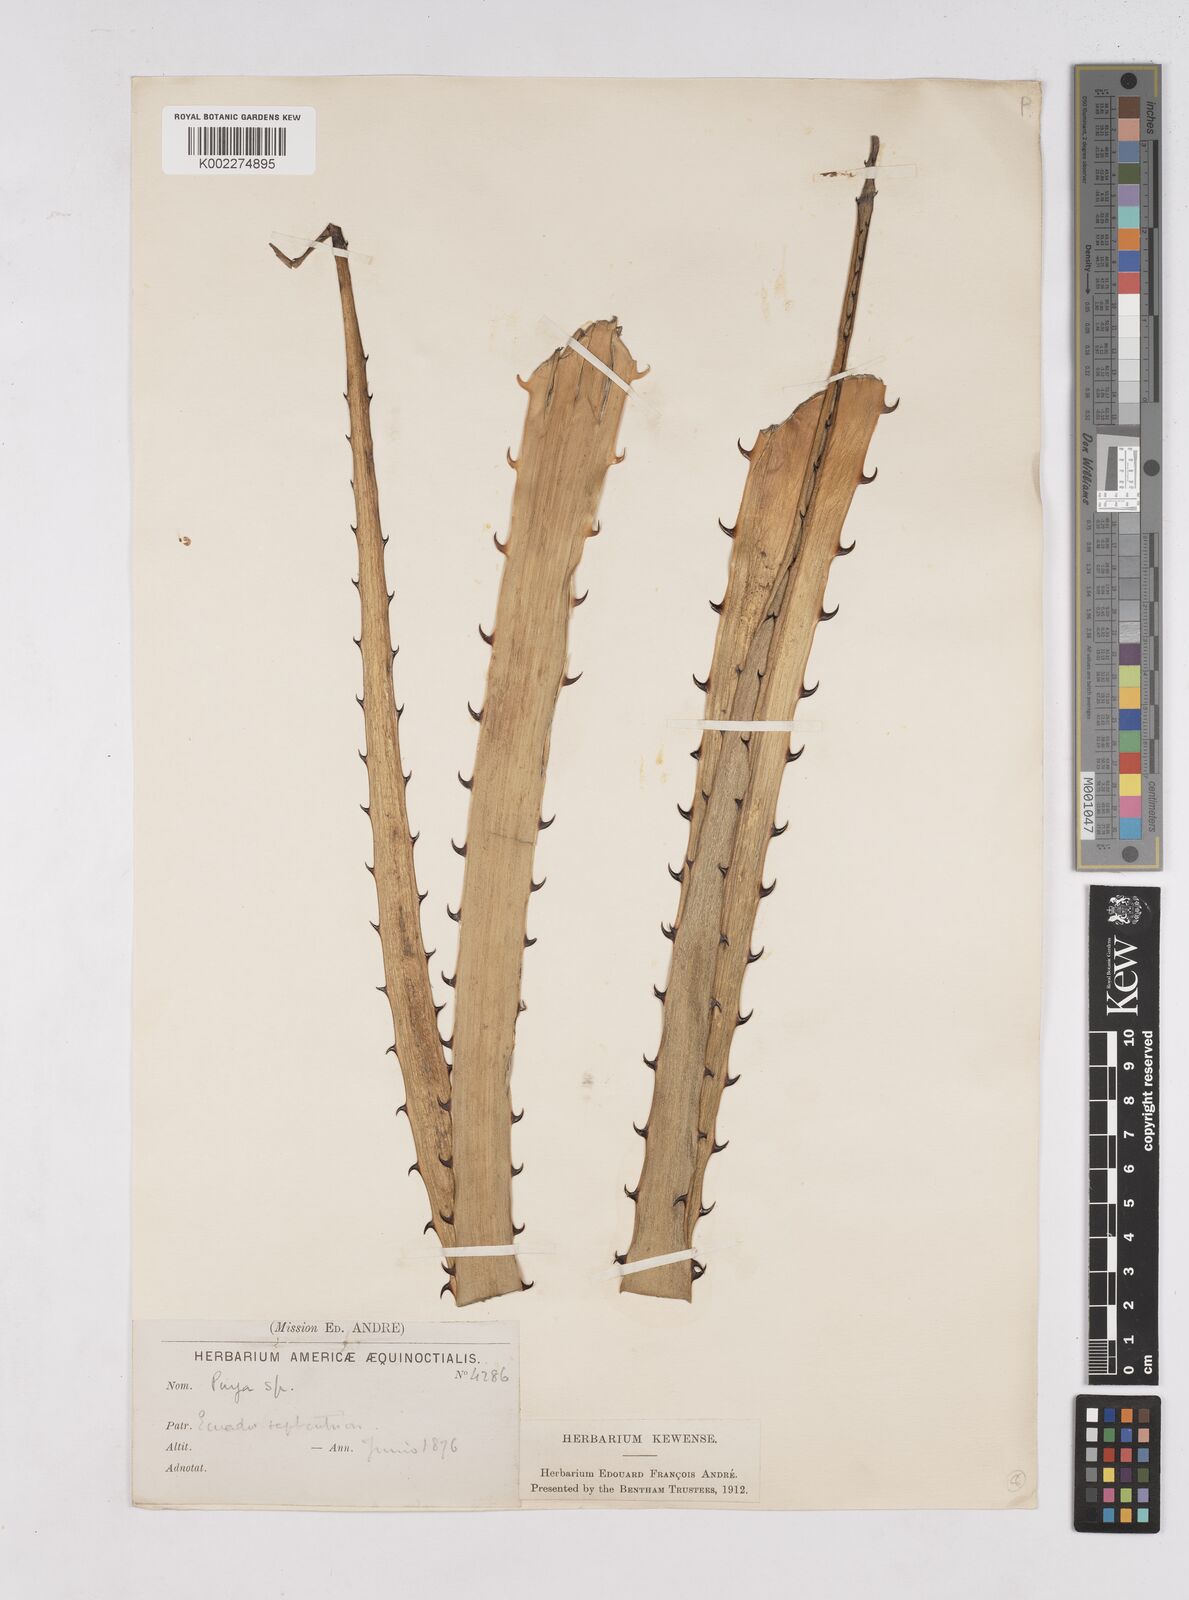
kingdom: Plantae
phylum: Tracheophyta
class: Liliopsida
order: Poales
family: Bromeliaceae
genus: Puya
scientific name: Puya
